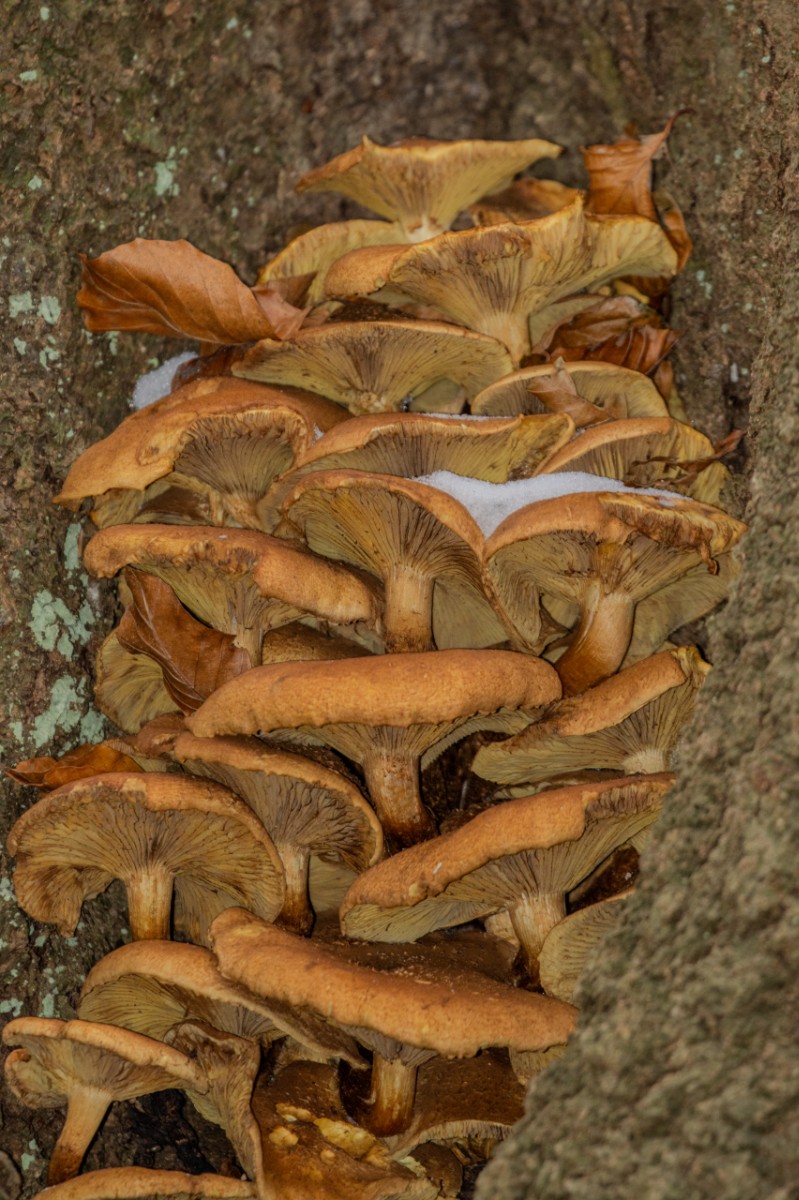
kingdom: Fungi
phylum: Basidiomycota
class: Agaricomycetes
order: Agaricales
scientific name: Agaricales
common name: champignonordenen
